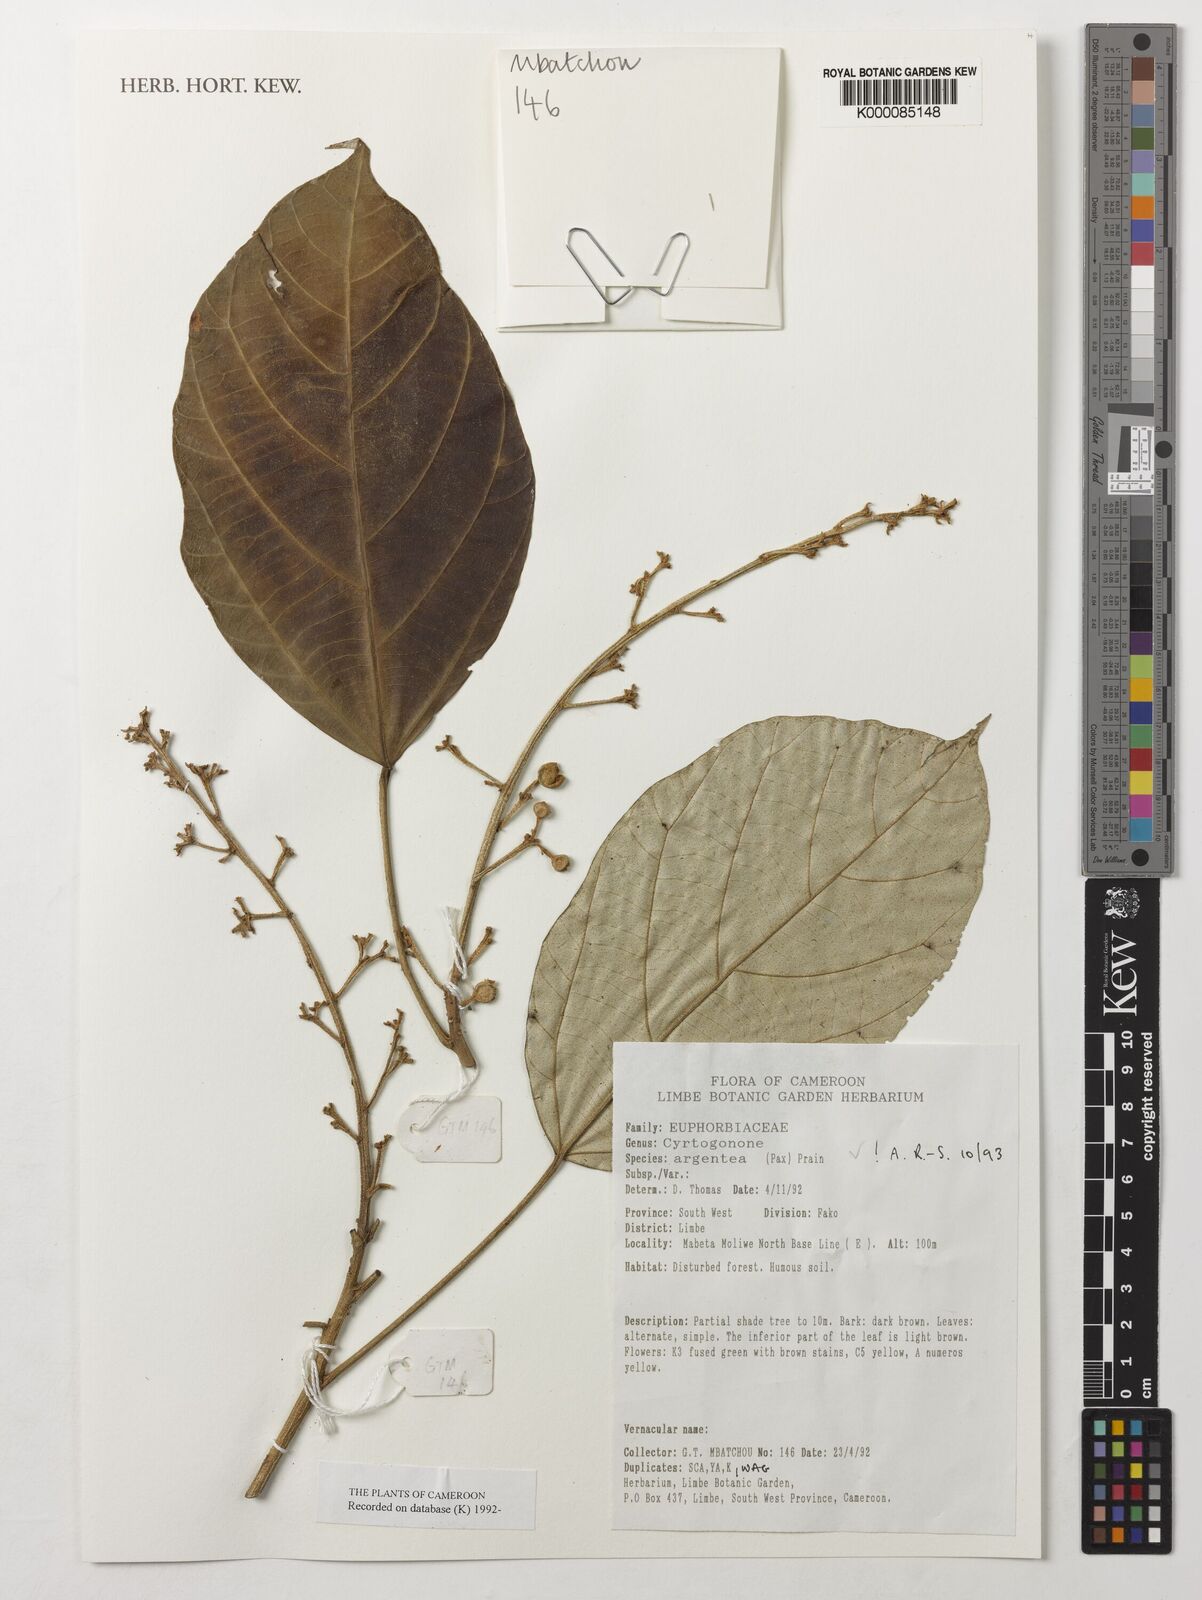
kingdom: Plantae
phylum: Tracheophyta
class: Magnoliopsida
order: Malpighiales
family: Euphorbiaceae
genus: Cyrtogonone
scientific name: Cyrtogonone argentea
